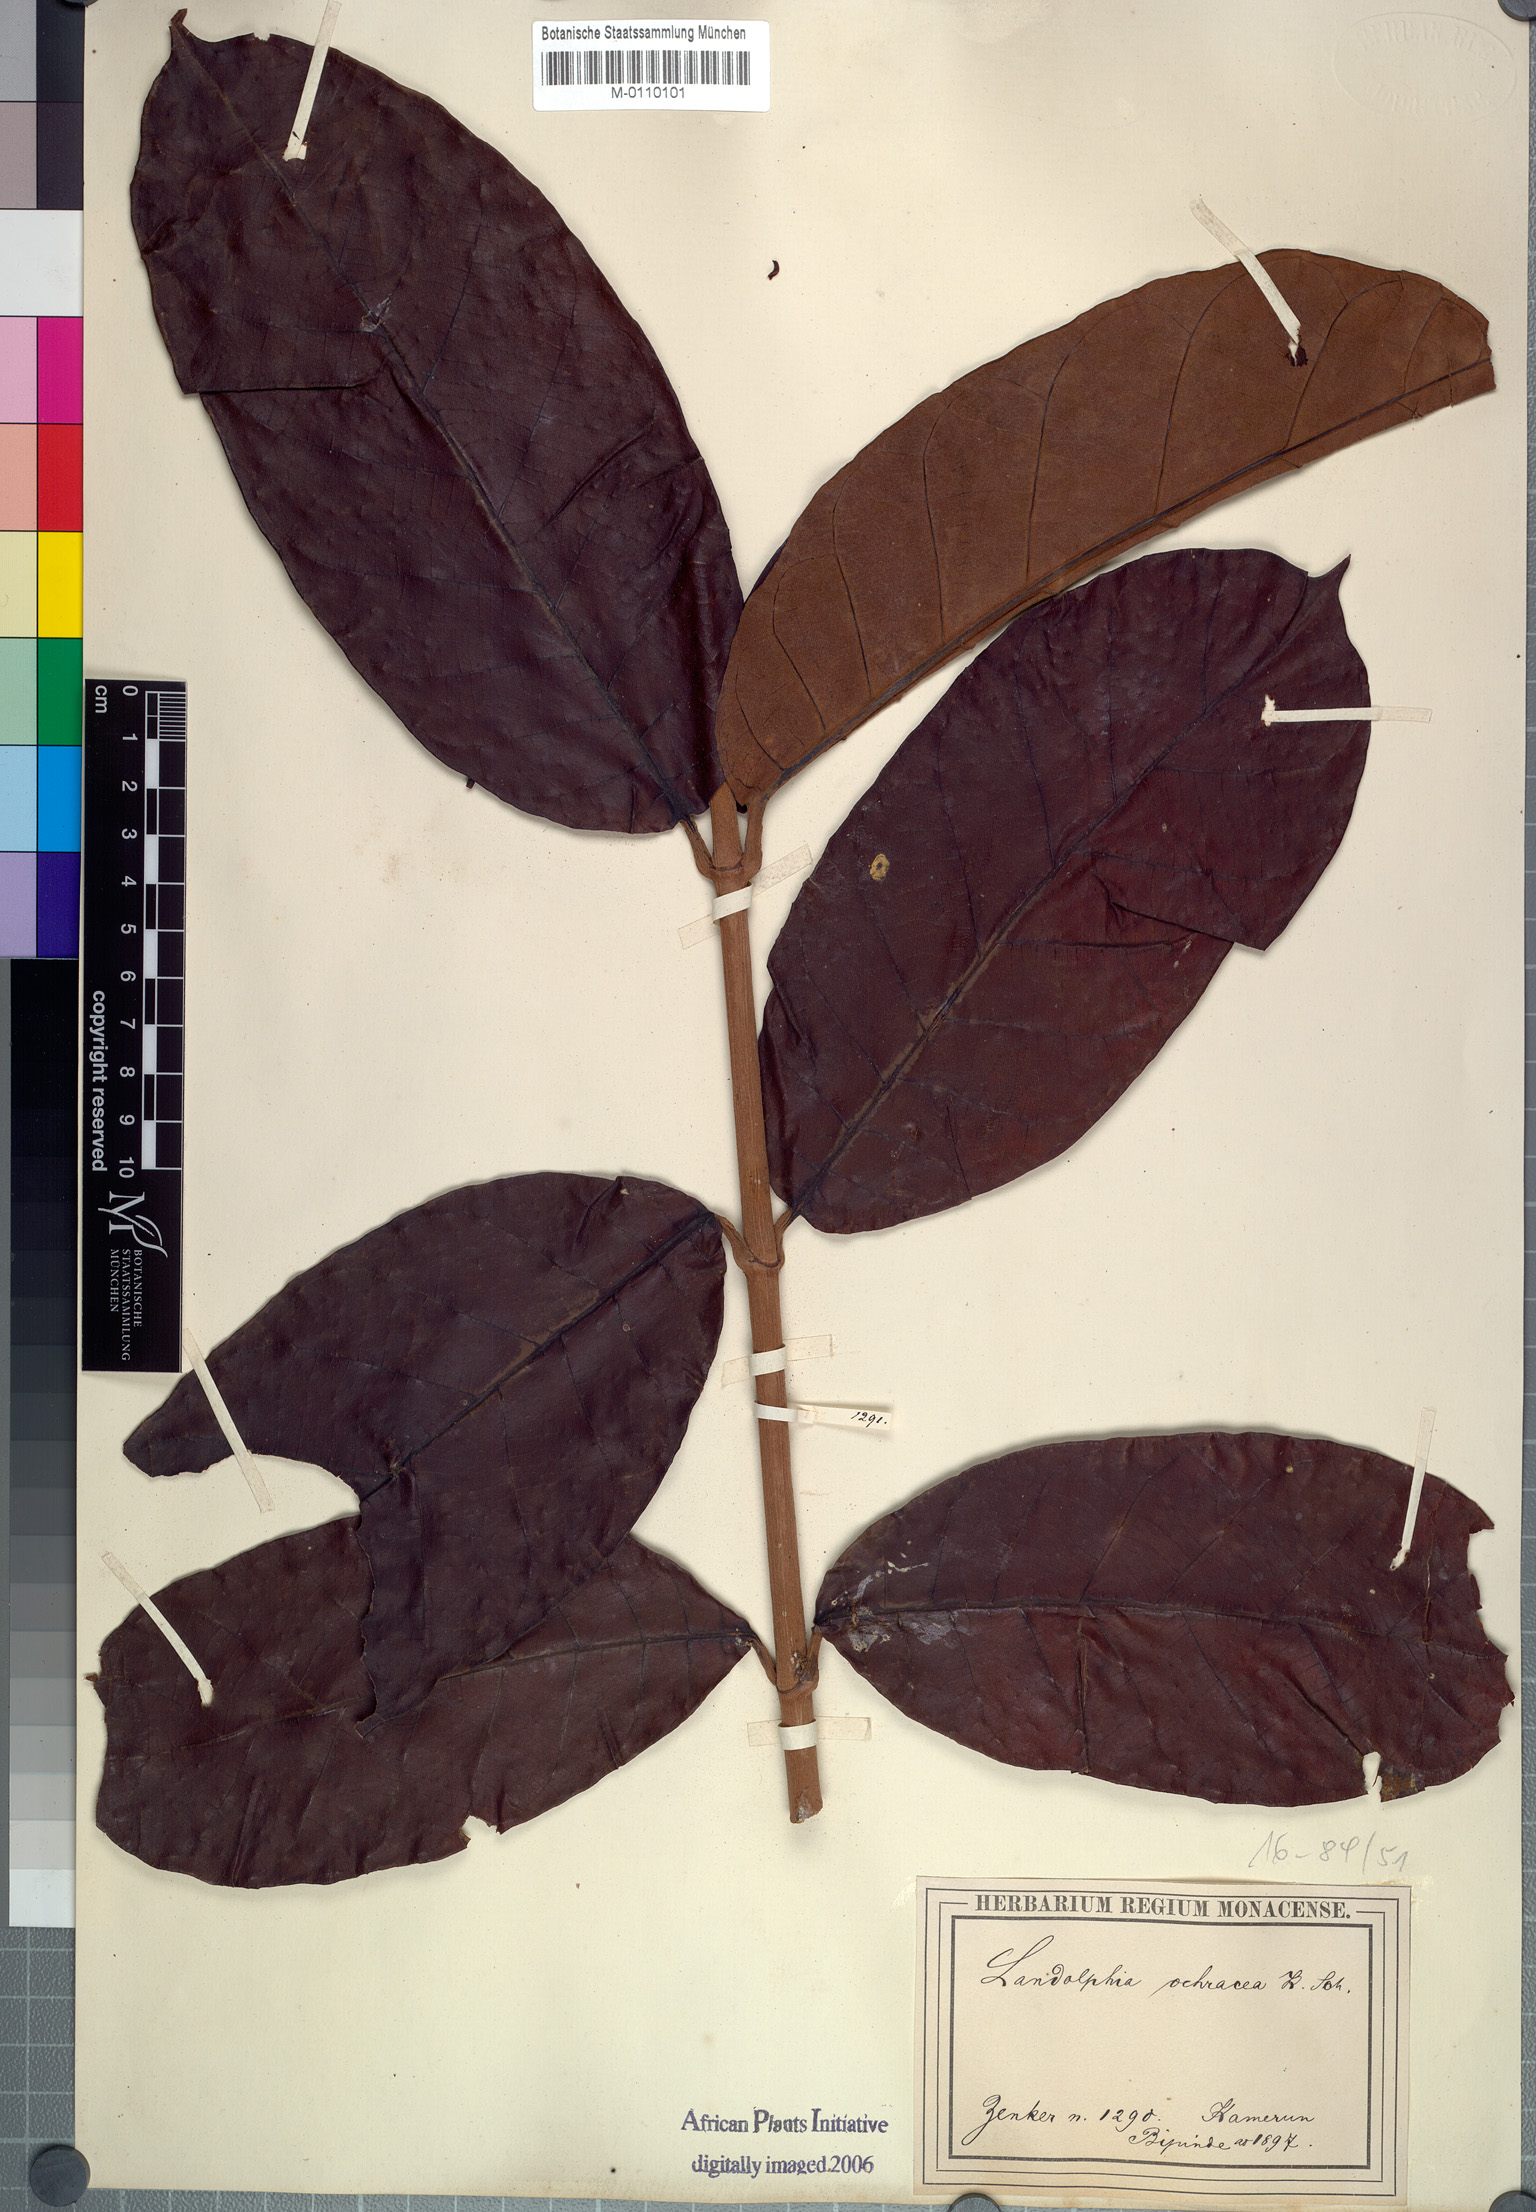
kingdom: Plantae
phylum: Tracheophyta
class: Magnoliopsida
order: Gentianales
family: Apocynaceae
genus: Dictyophleba
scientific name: Dictyophleba ochracea
